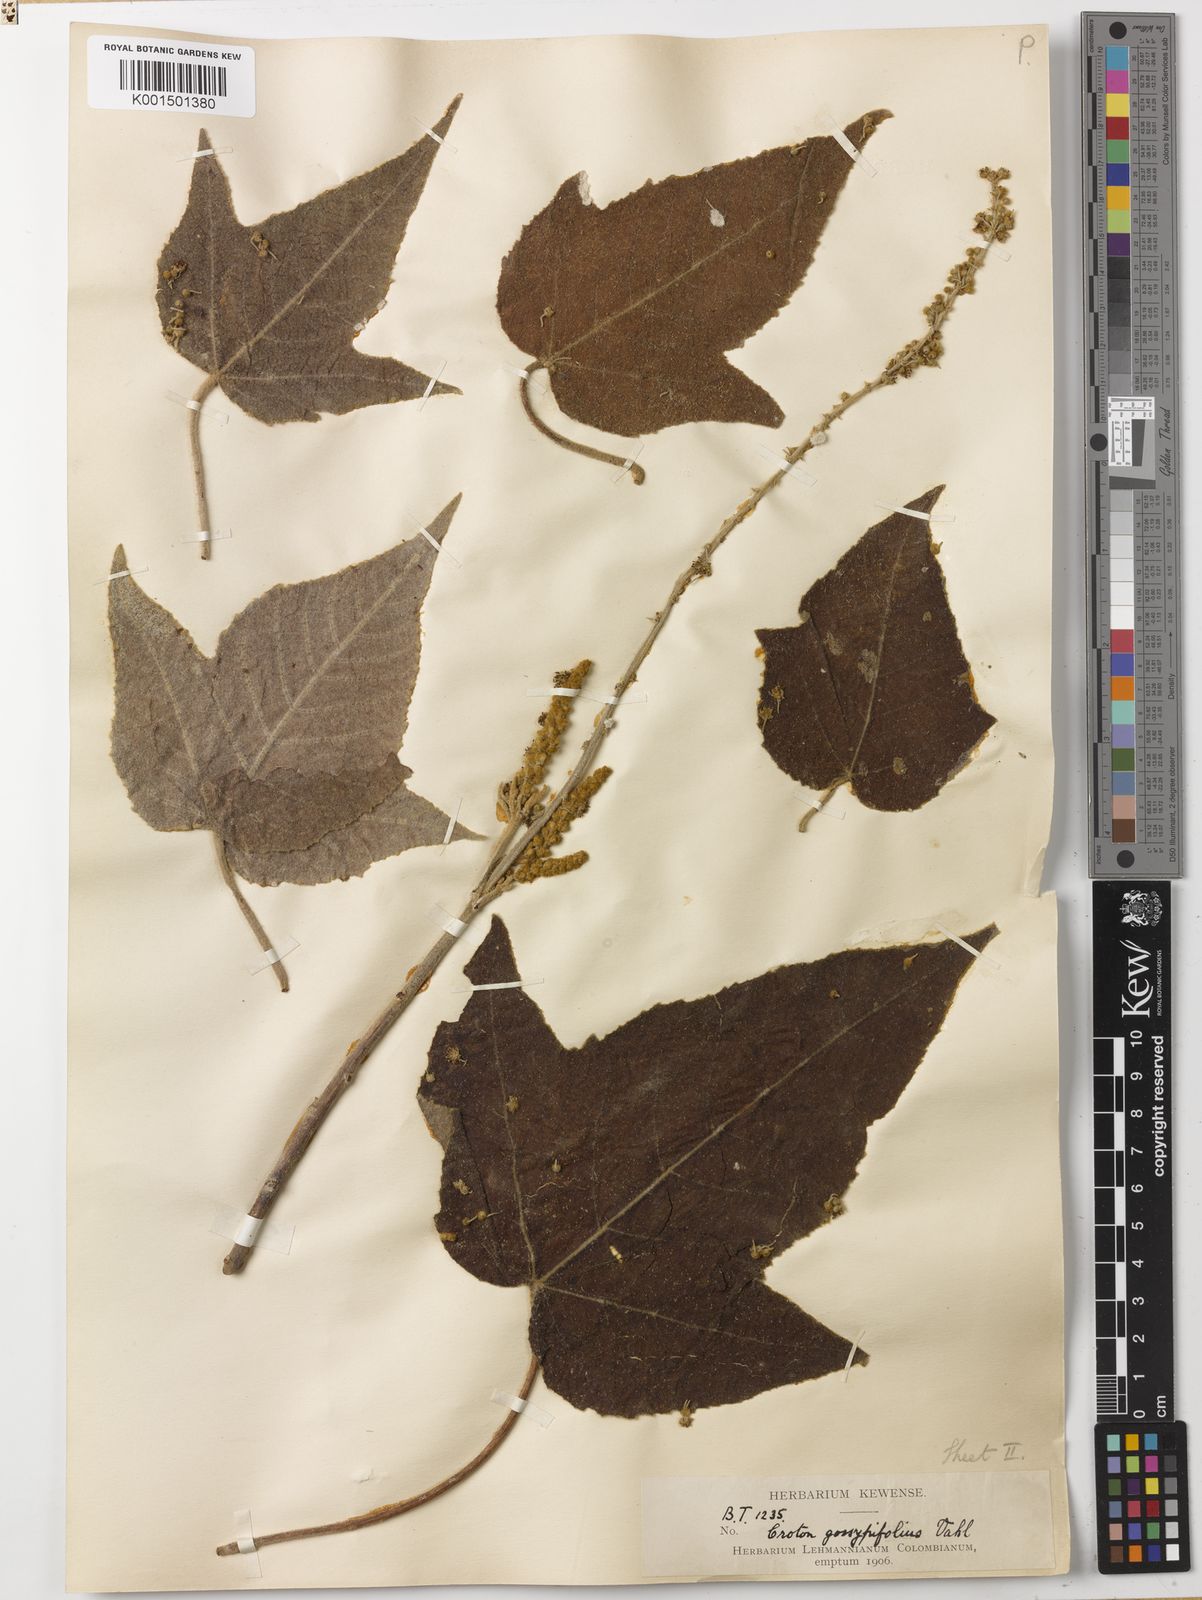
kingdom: Plantae
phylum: Tracheophyta
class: Magnoliopsida
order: Malpighiales
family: Euphorbiaceae
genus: Croton
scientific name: Croton gossypiifolius
